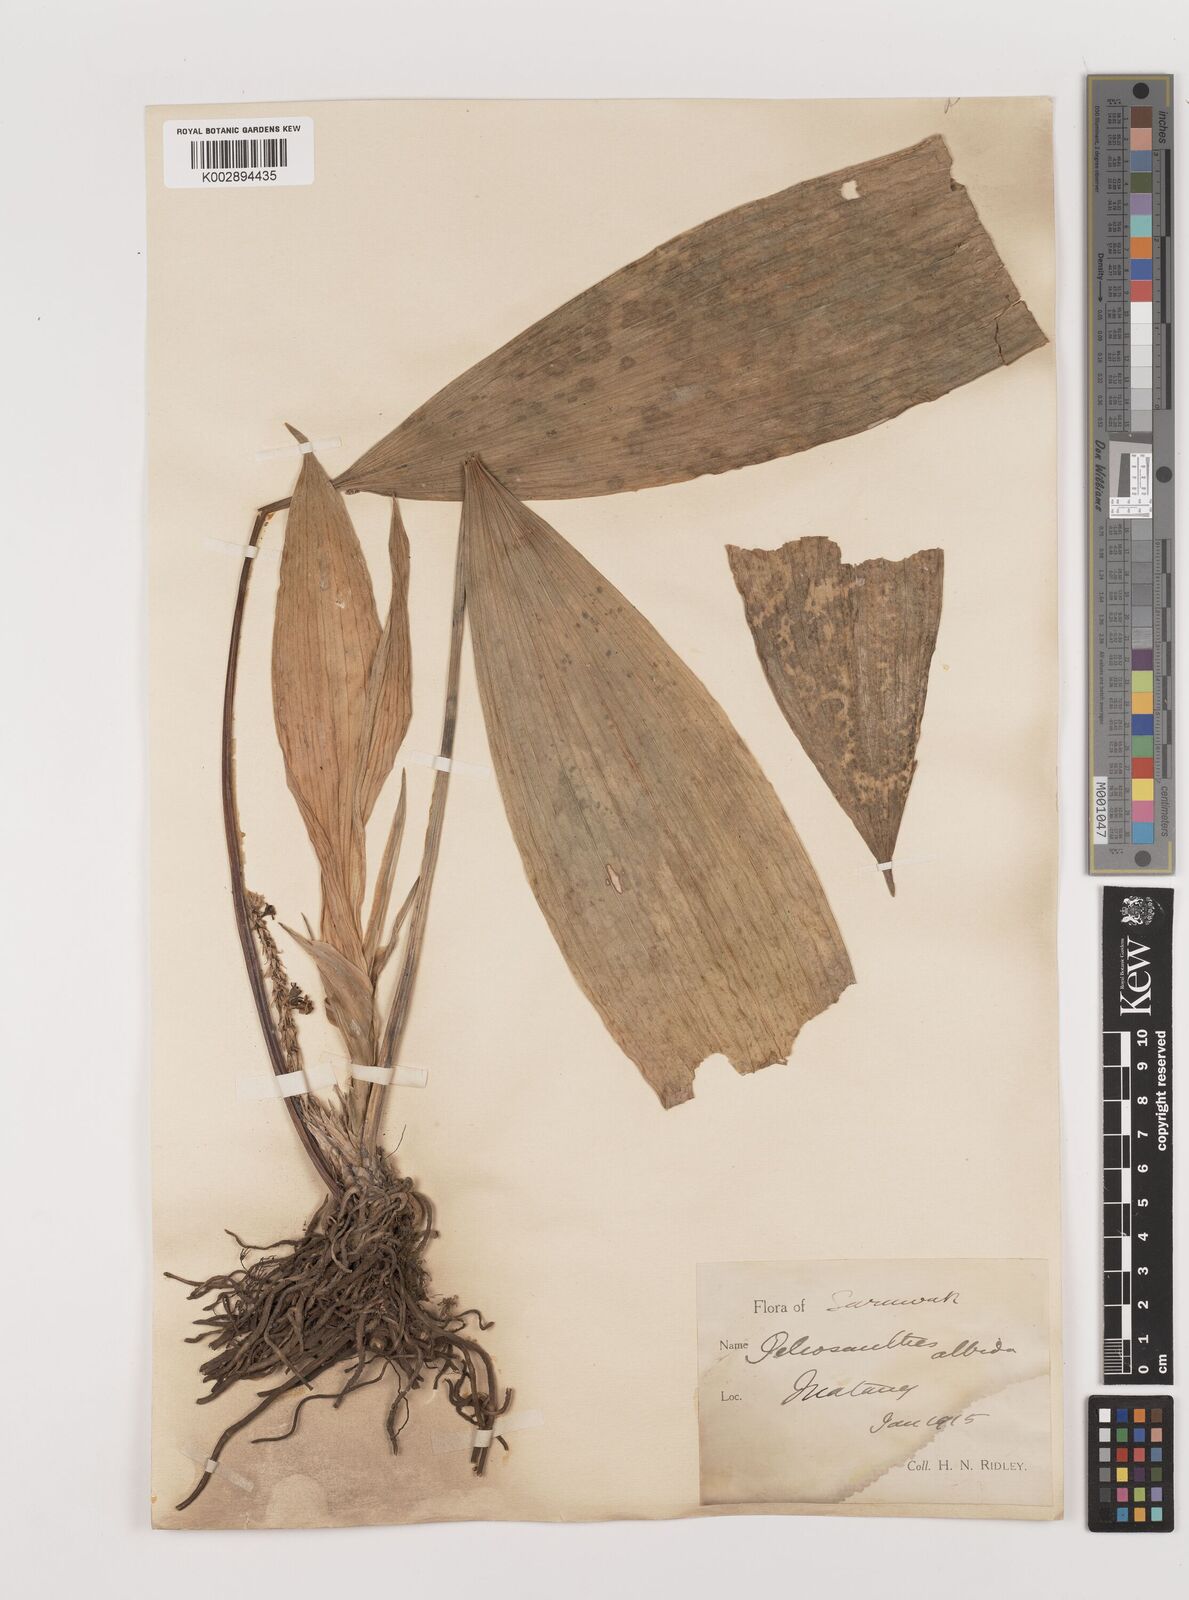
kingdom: Plantae
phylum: Tracheophyta
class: Liliopsida
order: Asparagales
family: Asparagaceae
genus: Peliosanthes
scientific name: Peliosanthes teta
